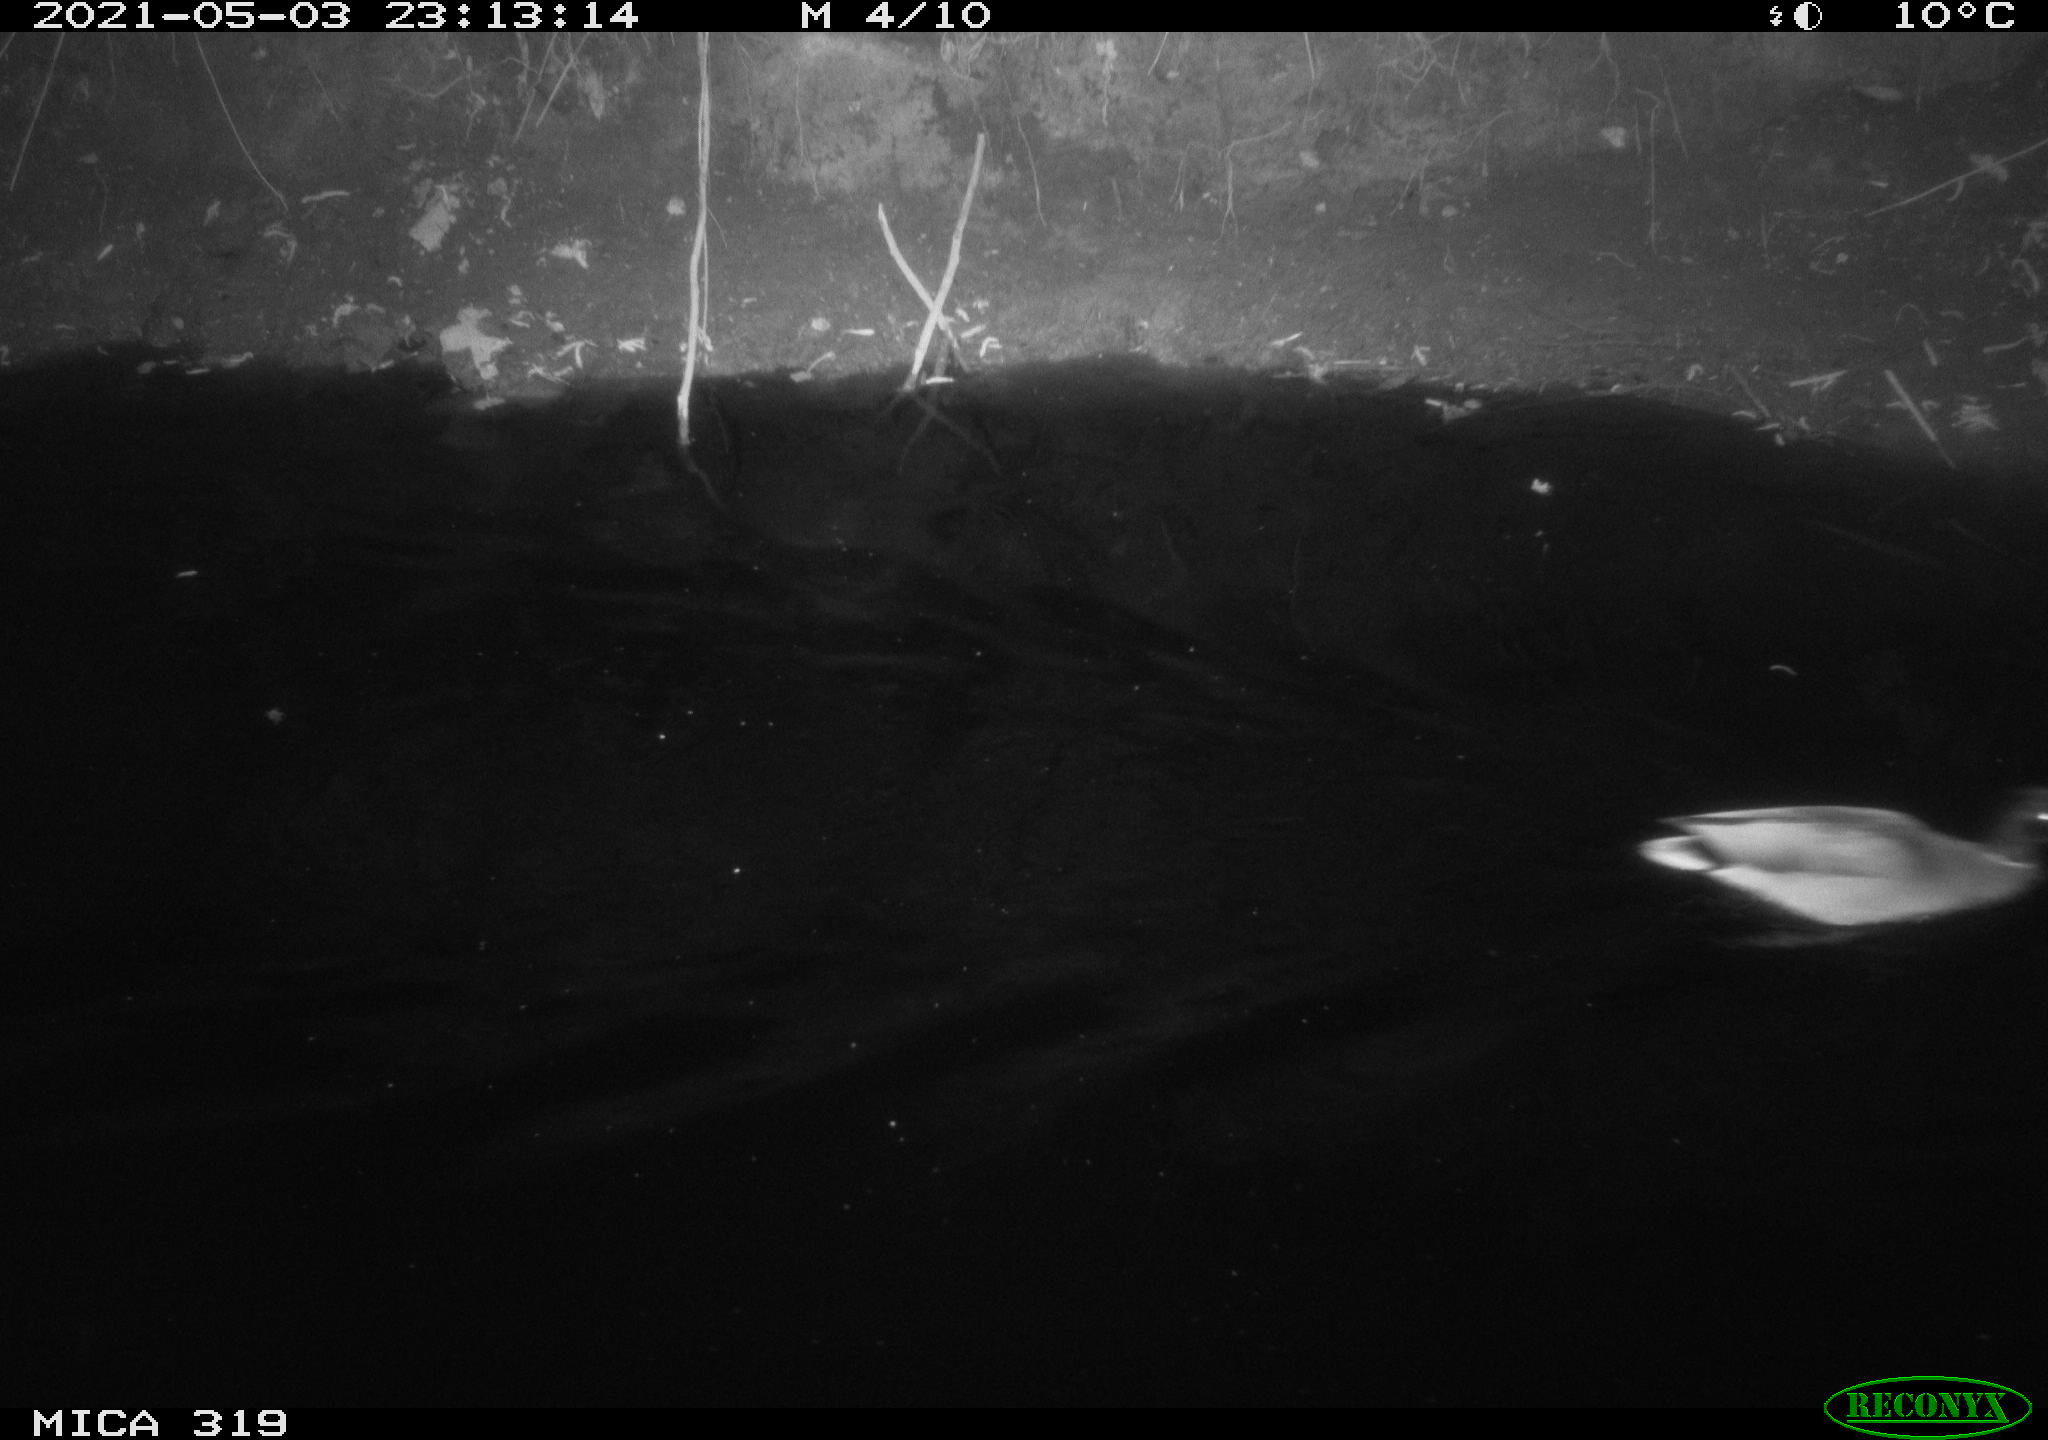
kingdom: Animalia
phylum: Chordata
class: Aves
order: Anseriformes
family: Anatidae
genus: Anas
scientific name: Anas platyrhynchos
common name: Mallard
